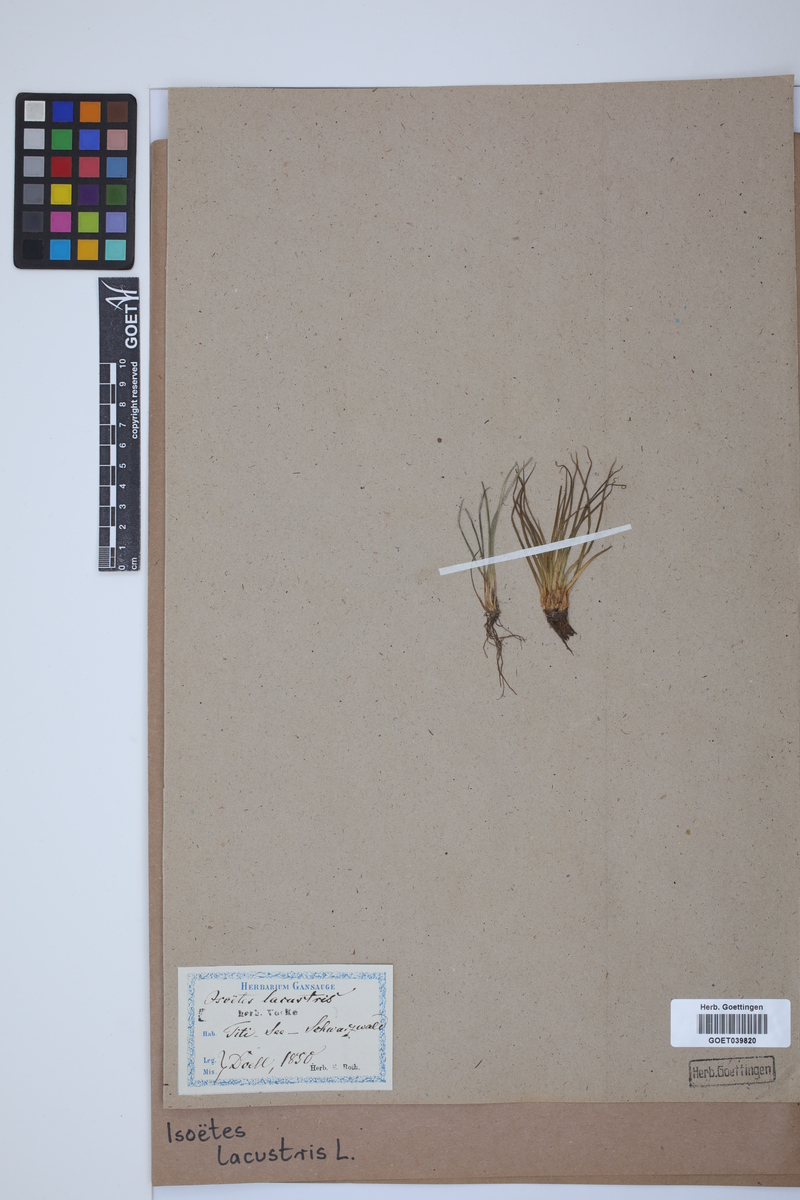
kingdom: Plantae
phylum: Tracheophyta
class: Lycopodiopsida
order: Isoetales
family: Isoetaceae
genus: Isoetes
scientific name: Isoetes lacustris
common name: Common quillwort
